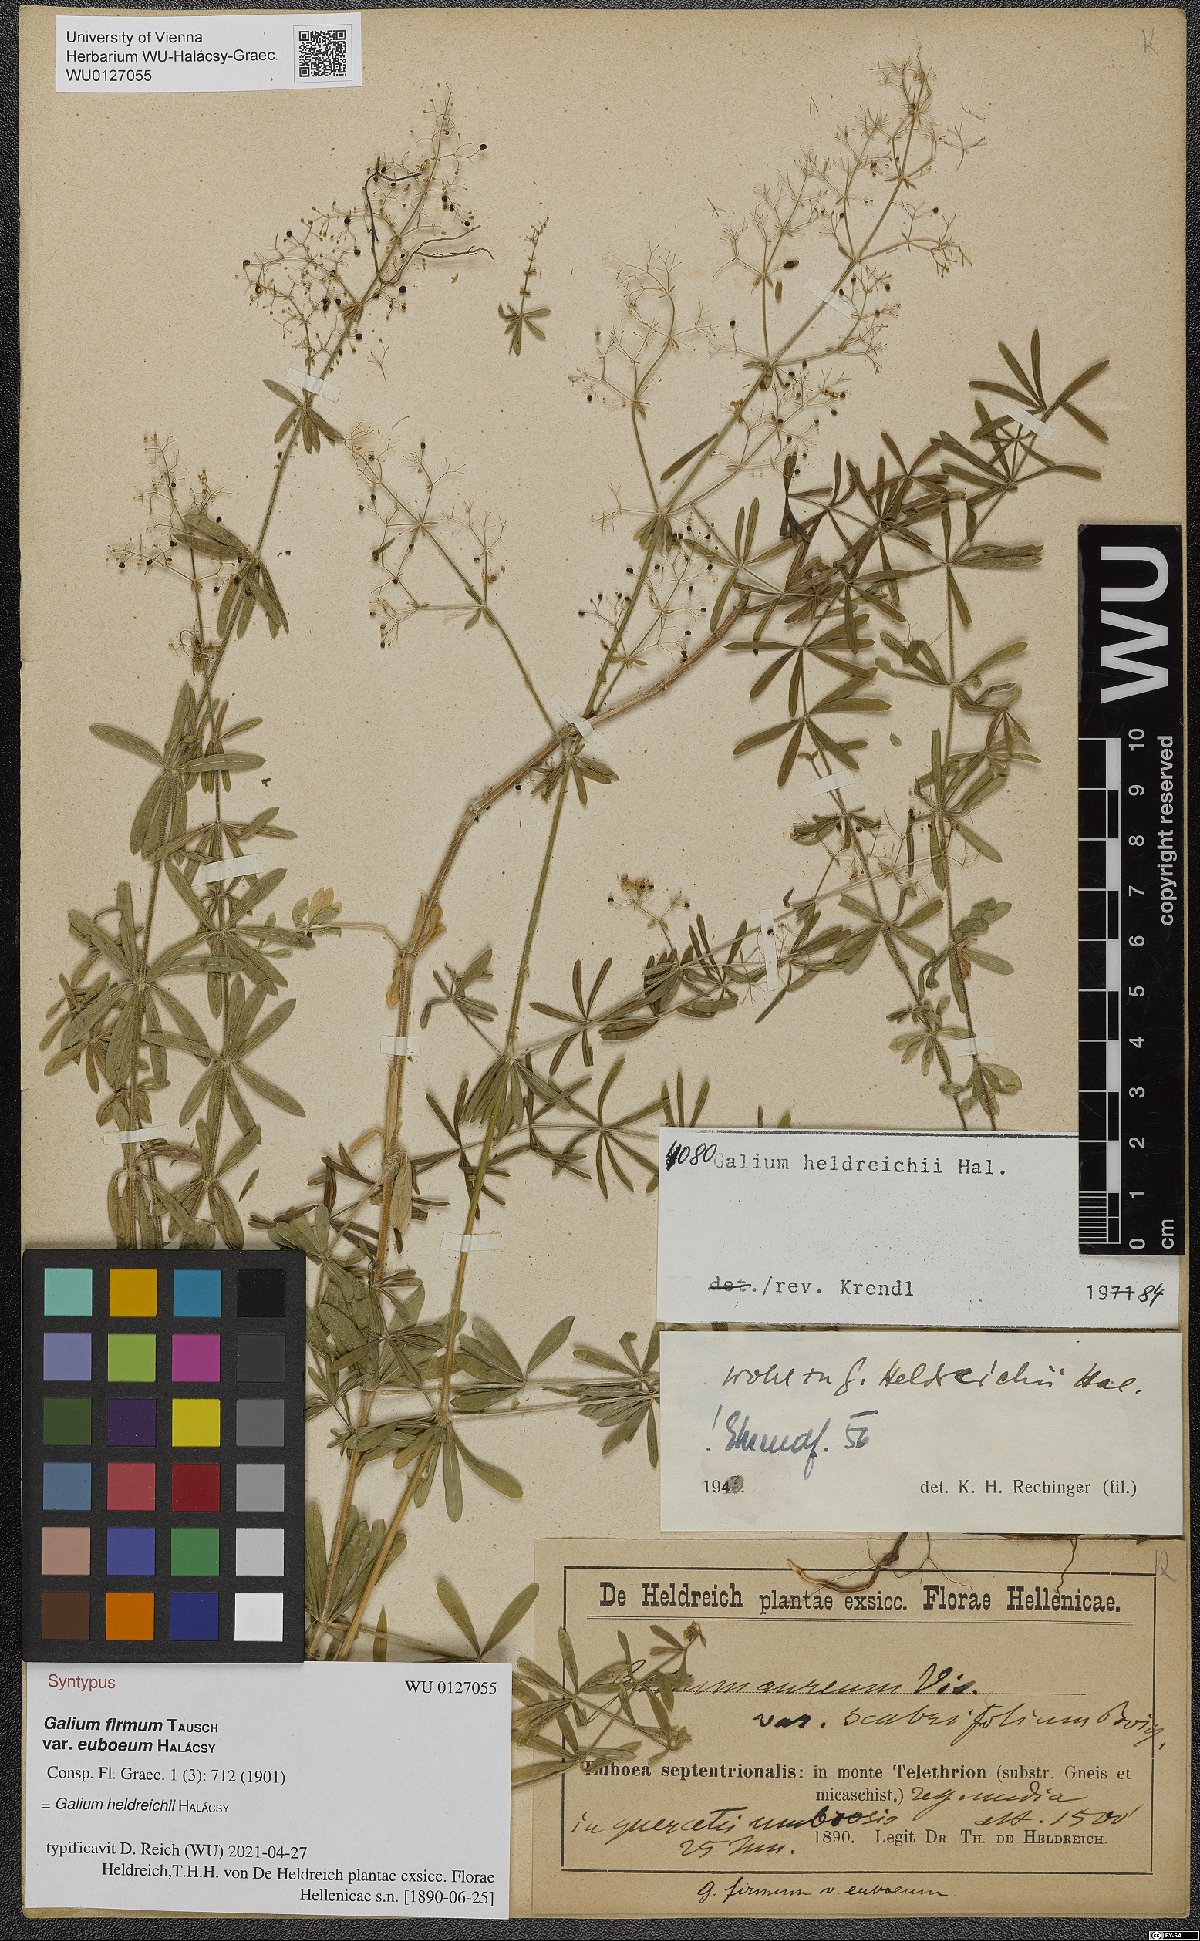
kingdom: Plantae
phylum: Tracheophyta
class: Magnoliopsida
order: Gentianales
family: Rubiaceae
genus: Galium
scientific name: Galium album
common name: White bedstraw
